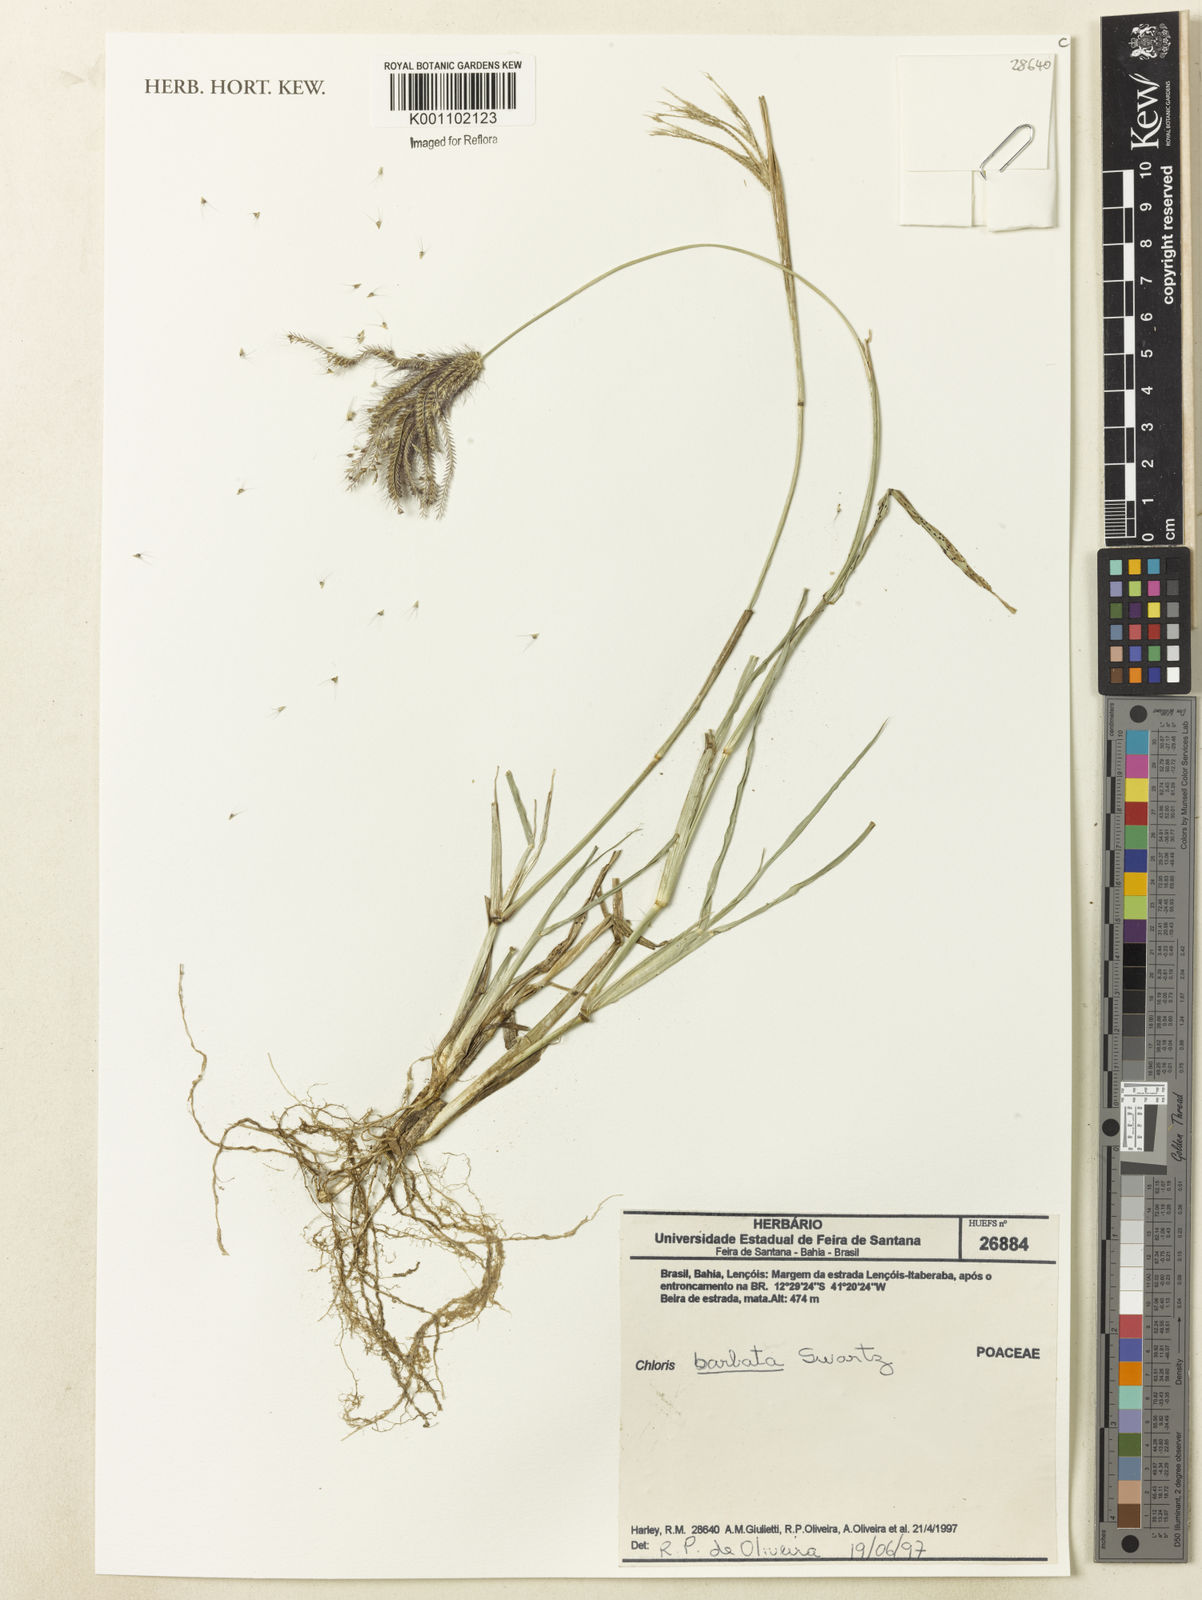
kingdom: Plantae
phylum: Tracheophyta
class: Liliopsida
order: Poales
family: Poaceae
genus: Chloris
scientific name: Chloris barbata
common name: Swollen fingergrass
